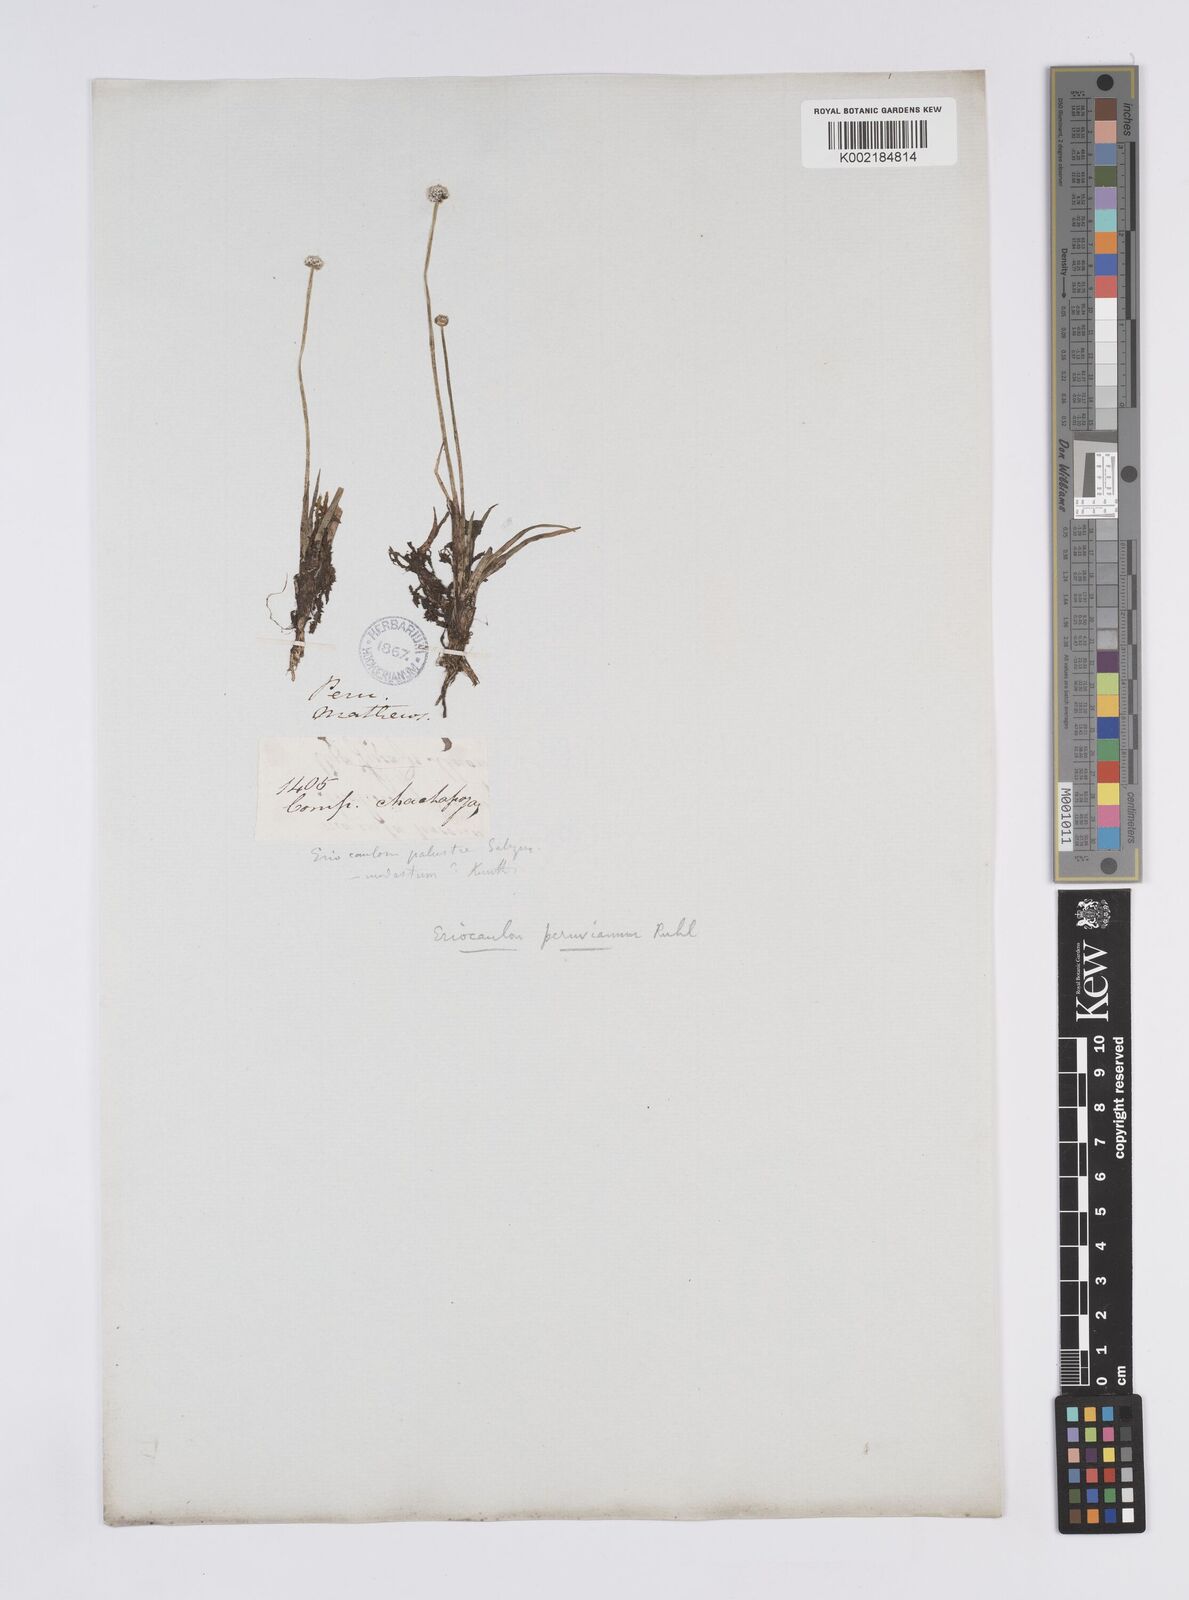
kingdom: Plantae
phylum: Tracheophyta
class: Liliopsida
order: Poales
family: Eriocaulaceae
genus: Eriocaulon
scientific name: Eriocaulon peruvianum
